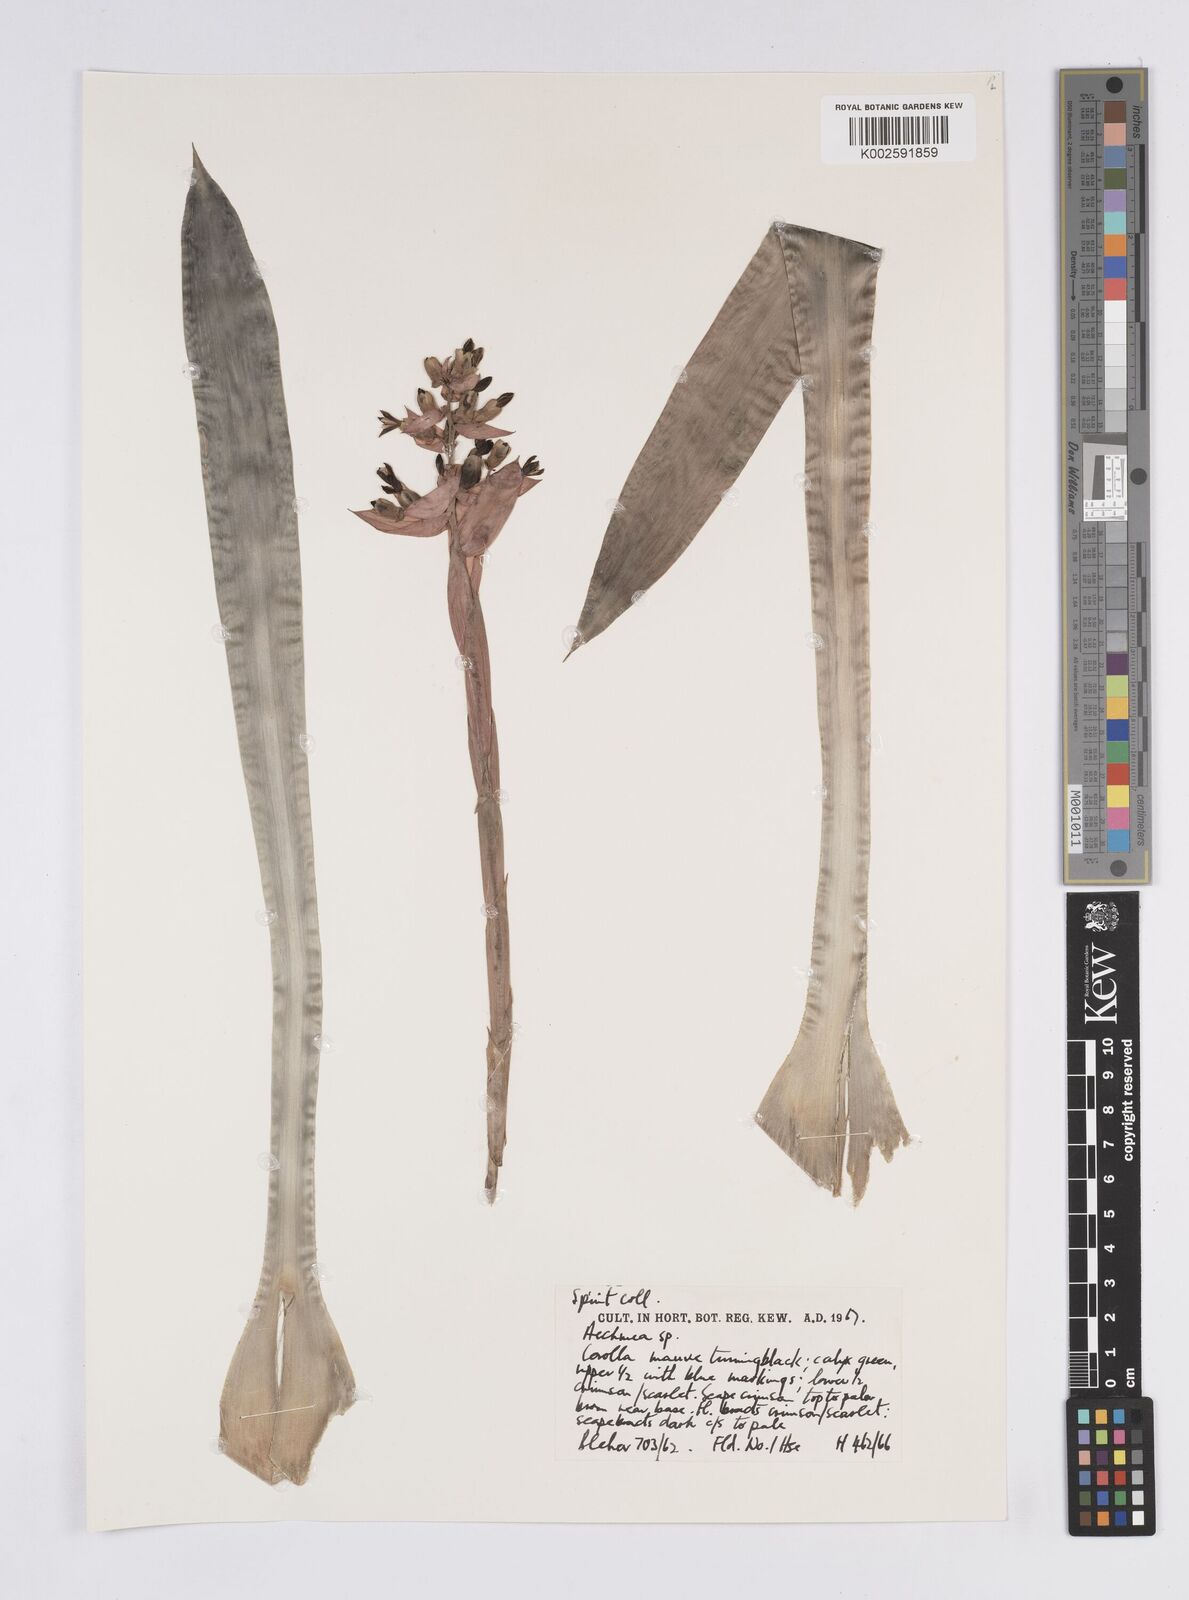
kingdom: Plantae
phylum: Tracheophyta
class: Liliopsida
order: Poales
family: Bromeliaceae
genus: Aechmea
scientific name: Aechmea
